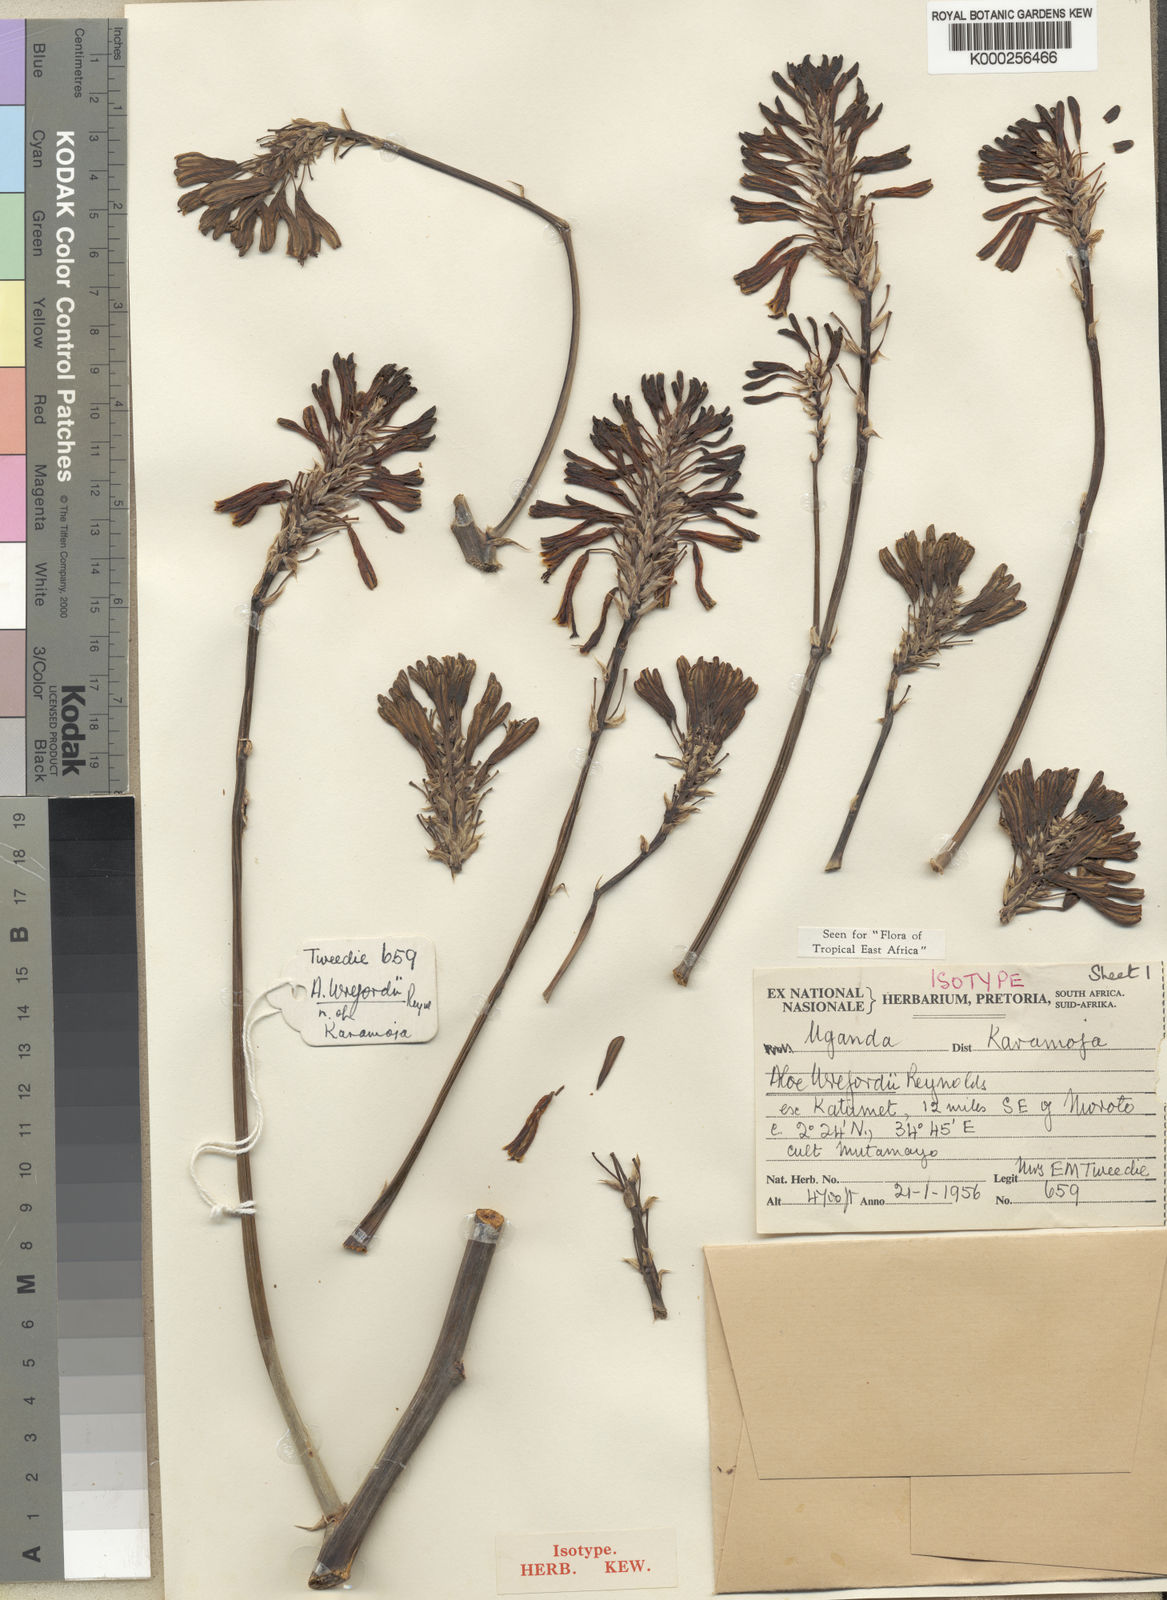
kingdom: Plantae
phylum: Tracheophyta
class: Liliopsida
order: Asparagales
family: Asphodelaceae
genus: Aloe
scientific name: Aloe wrefordii
